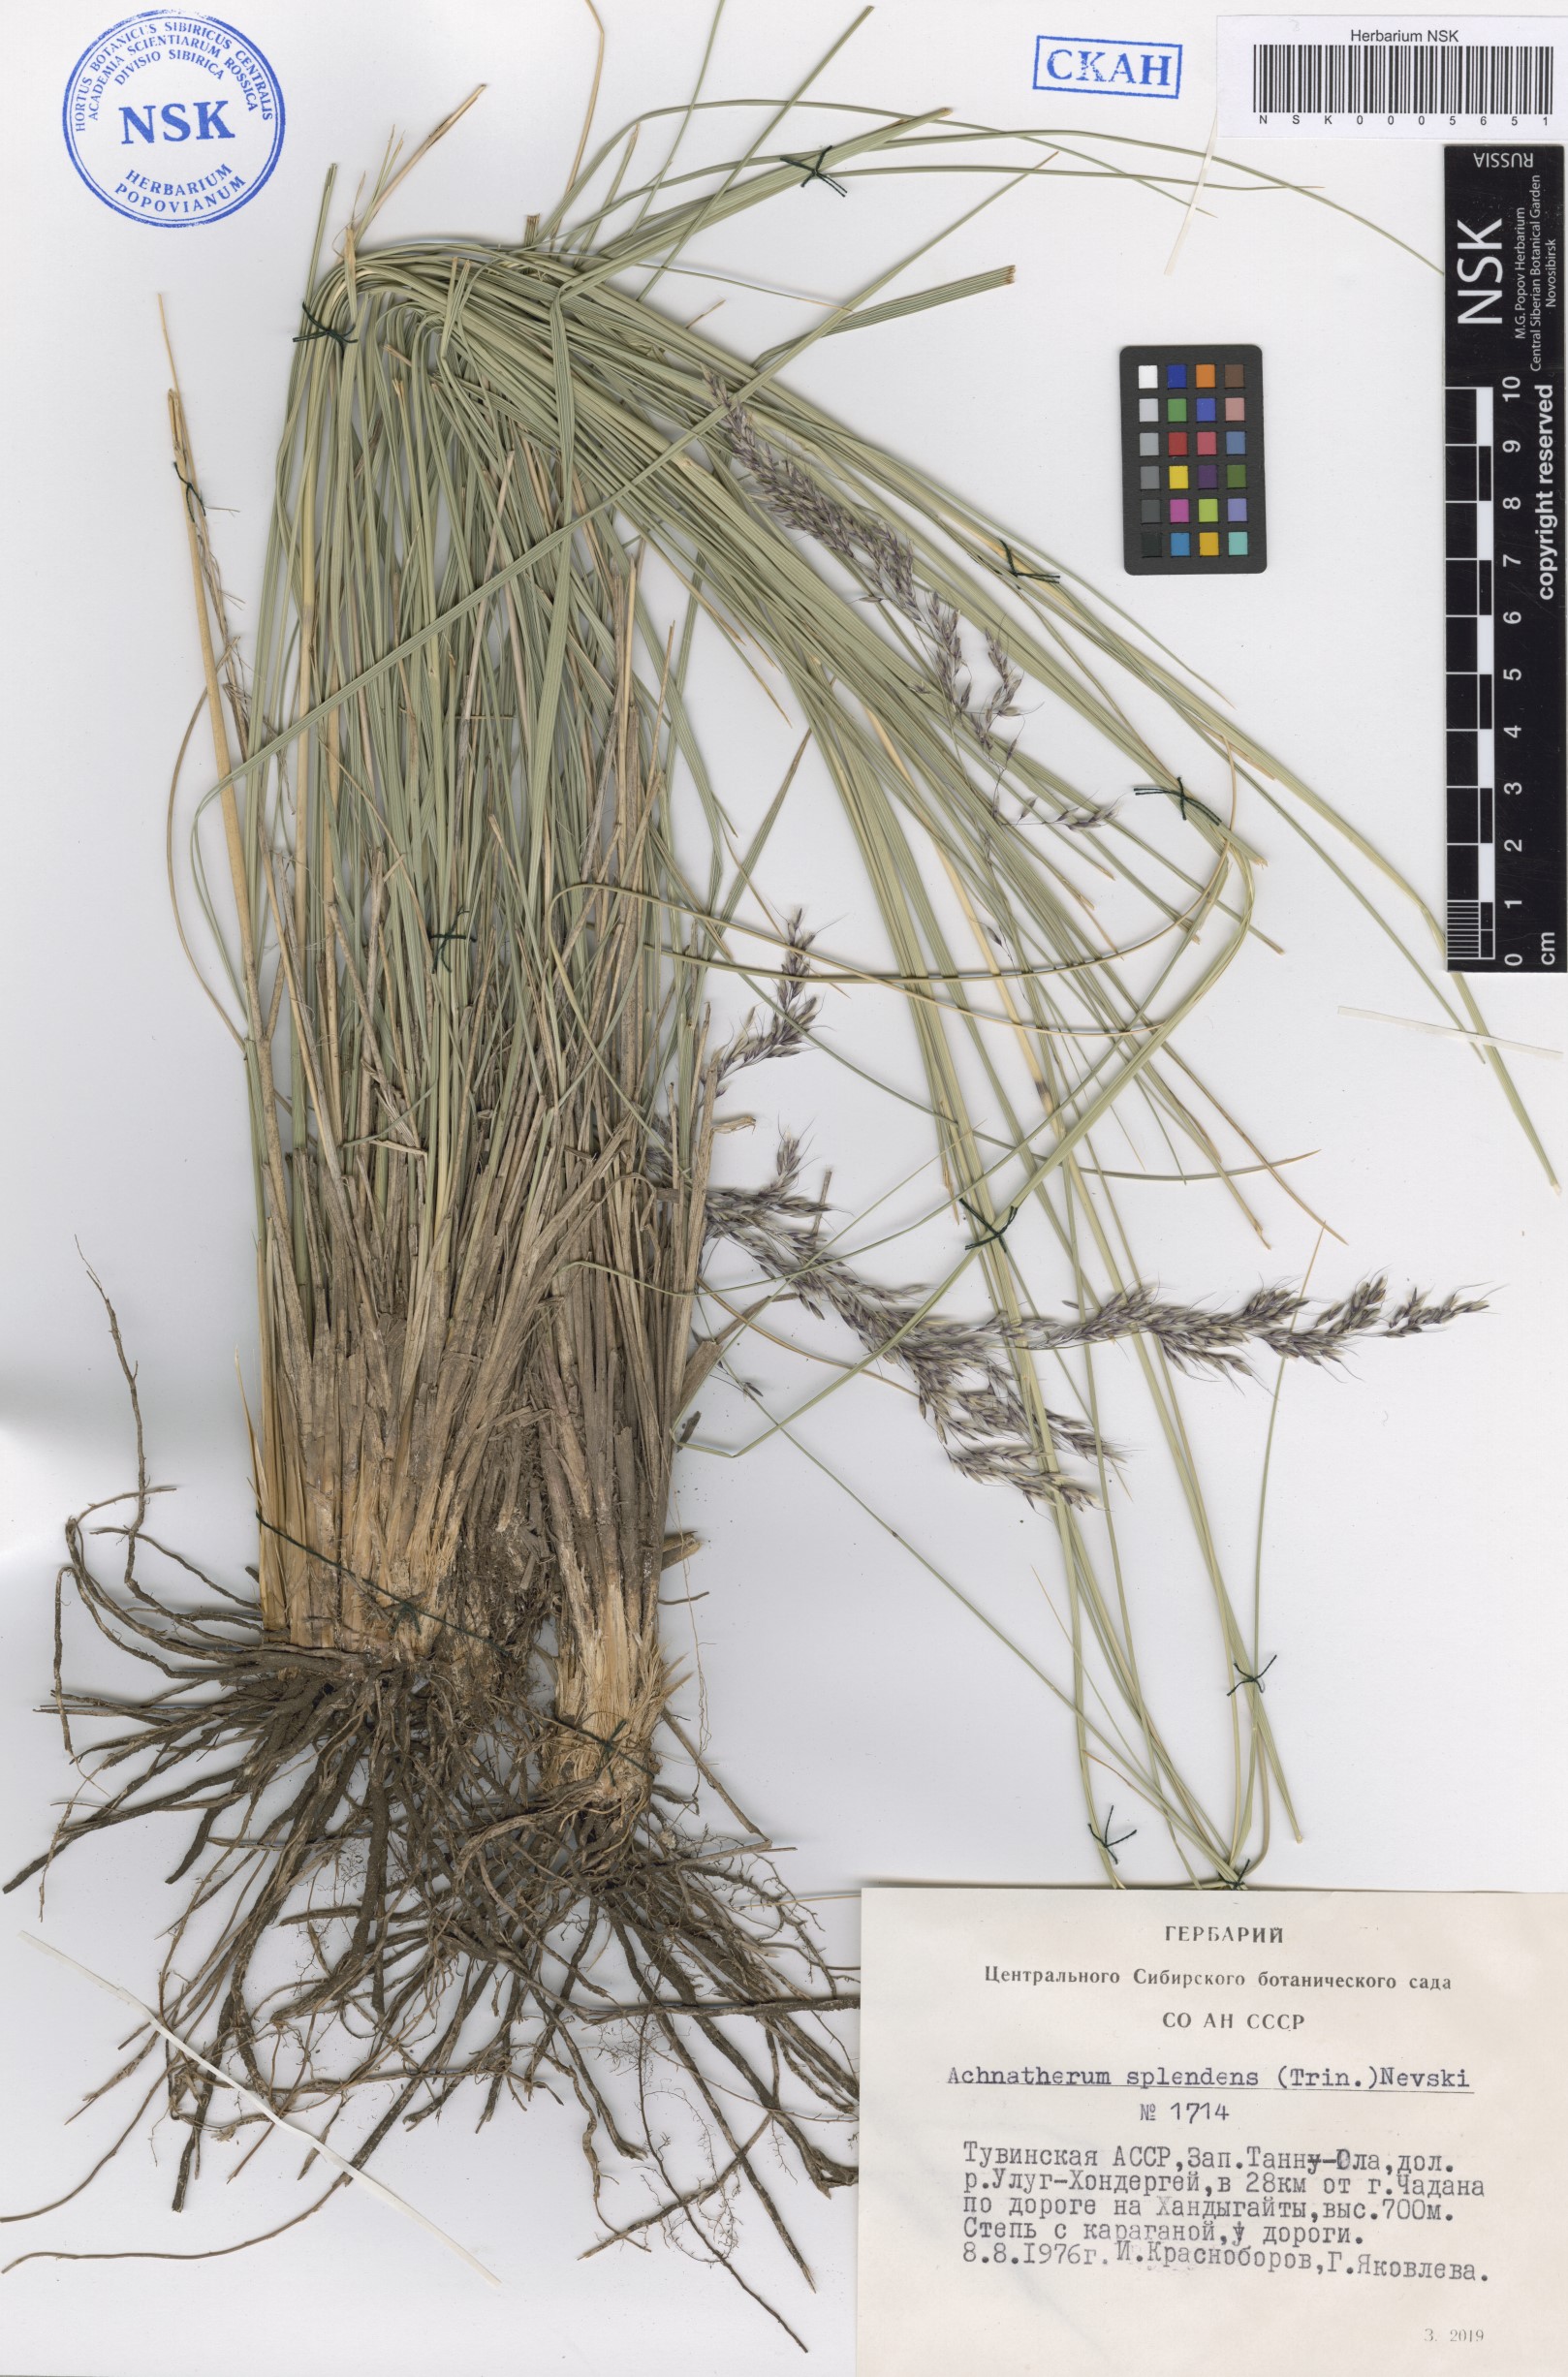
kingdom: Plantae
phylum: Tracheophyta
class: Liliopsida
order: Poales
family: Poaceae
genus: Neotrinia
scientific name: Neotrinia splendens
